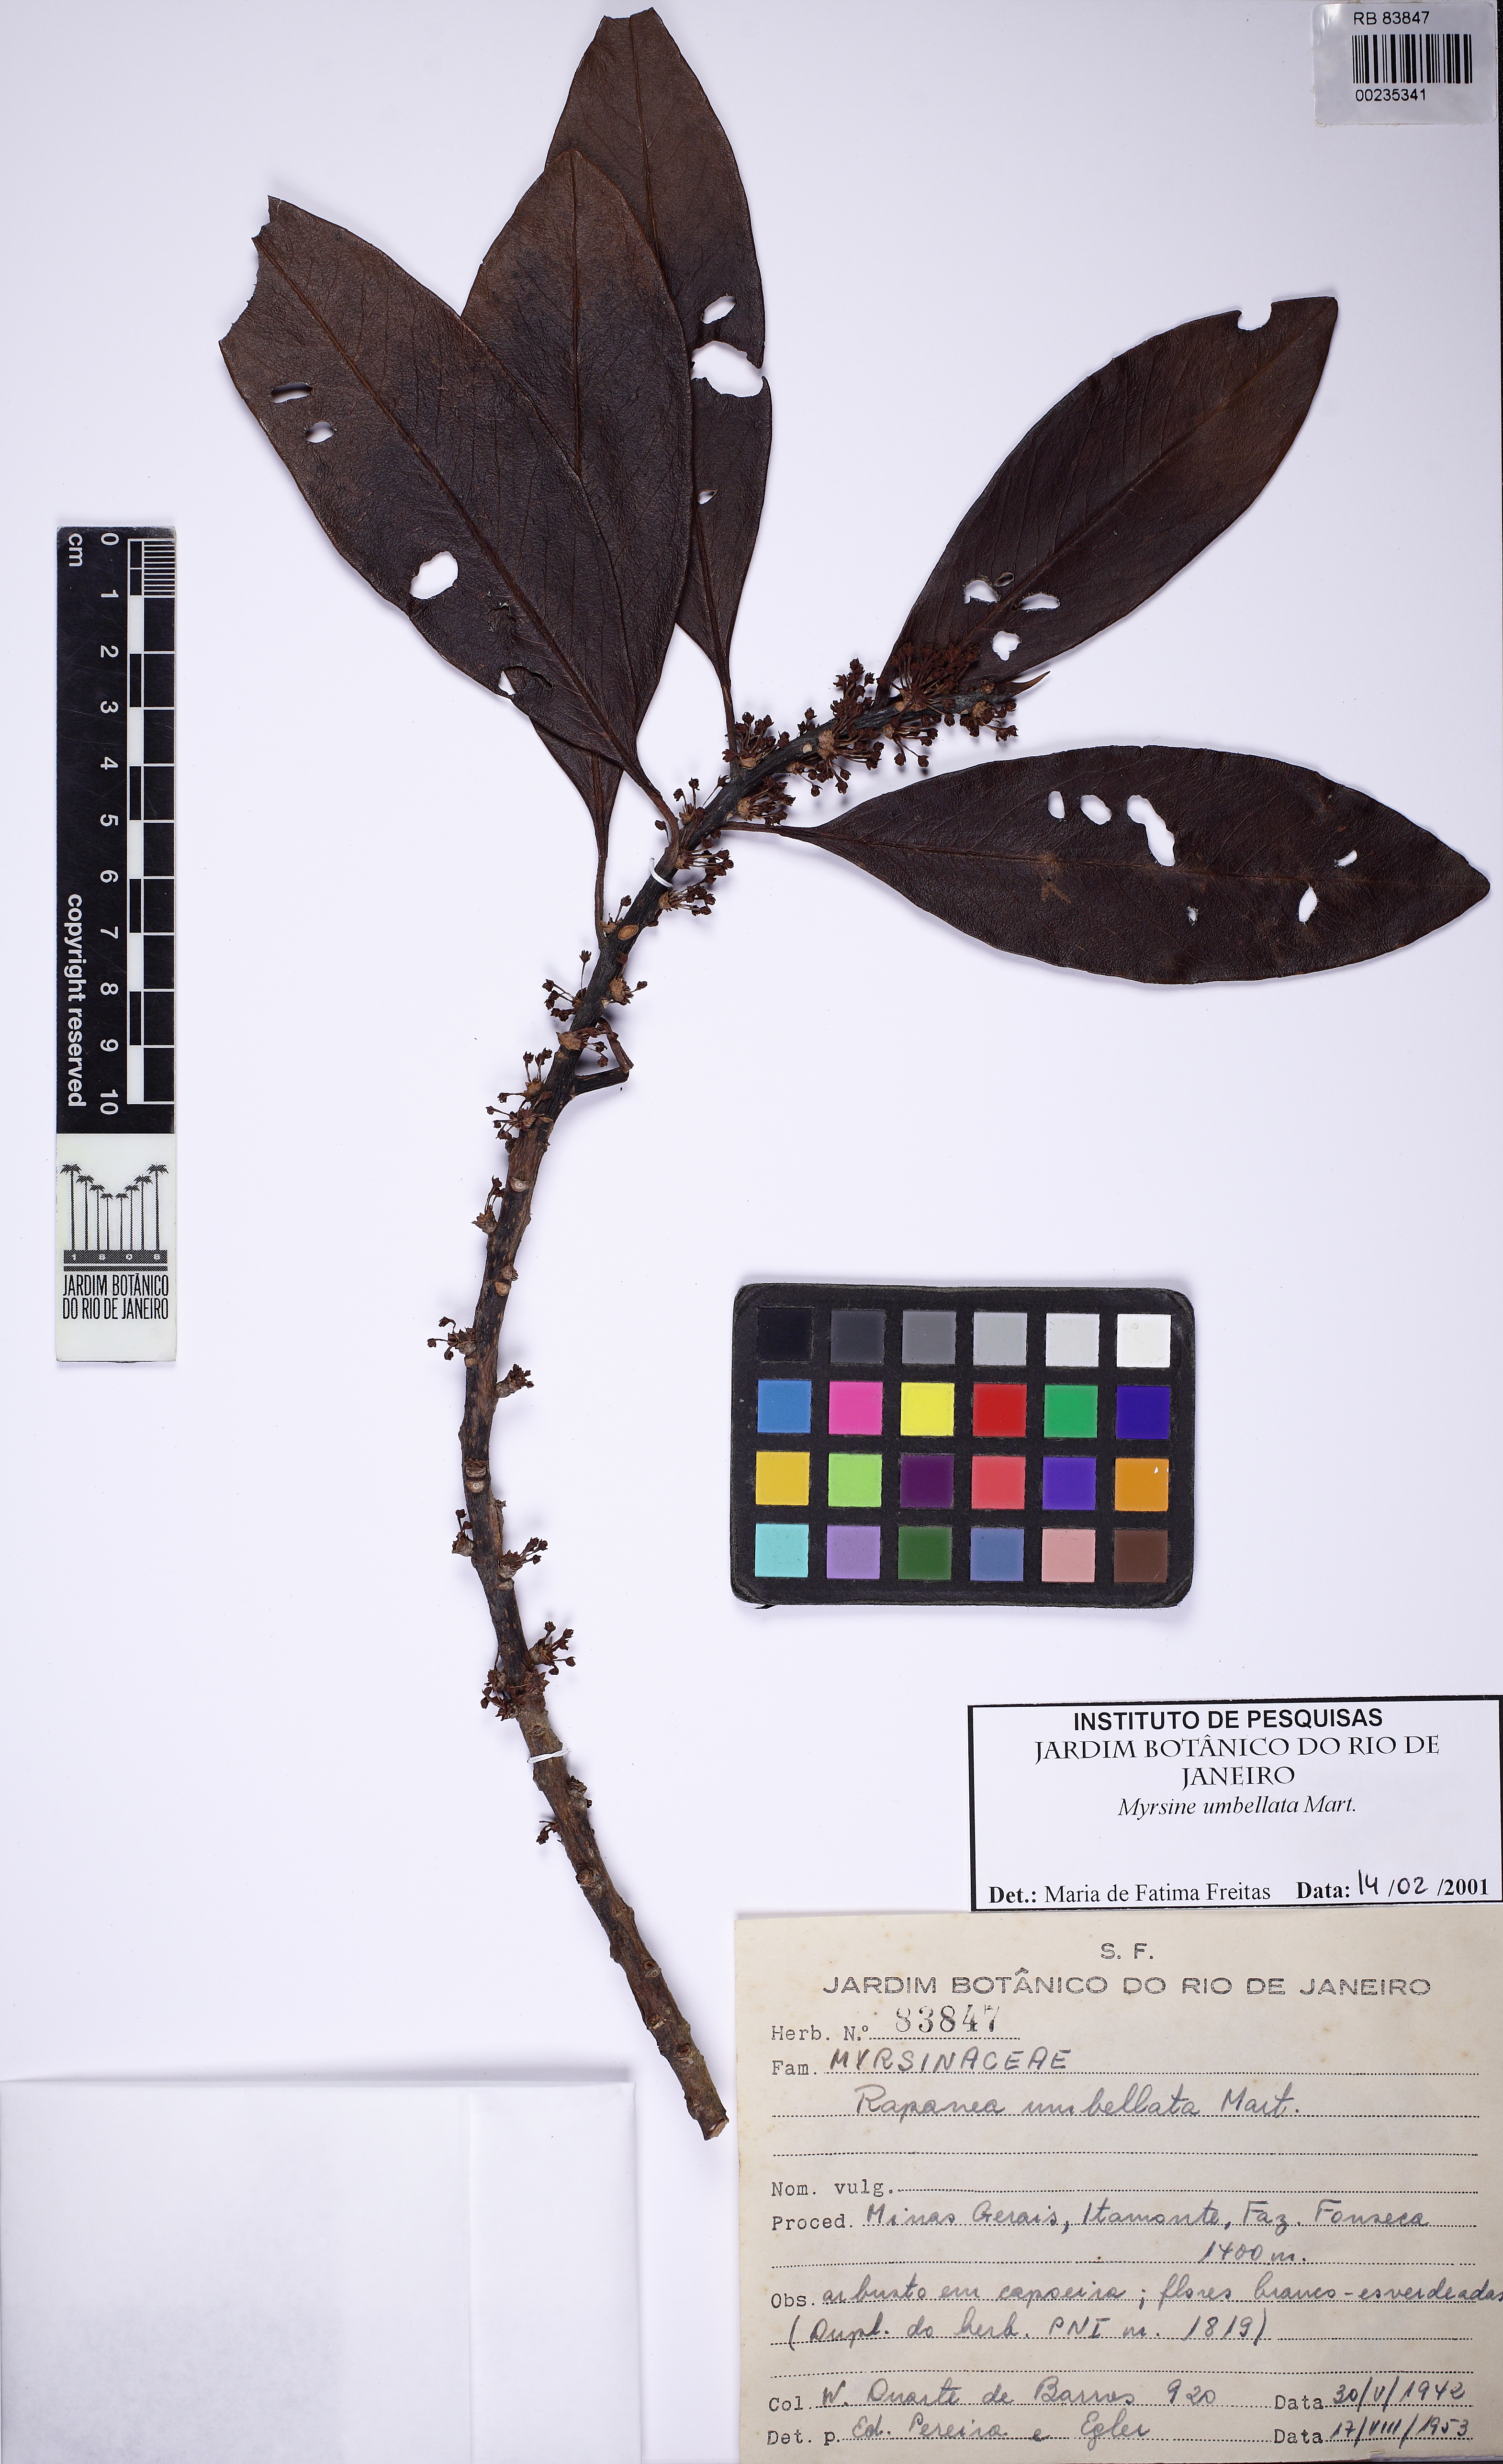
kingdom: Plantae
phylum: Tracheophyta
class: Magnoliopsida
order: Ericales
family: Primulaceae
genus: Myrsine
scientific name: Myrsine umbellata
